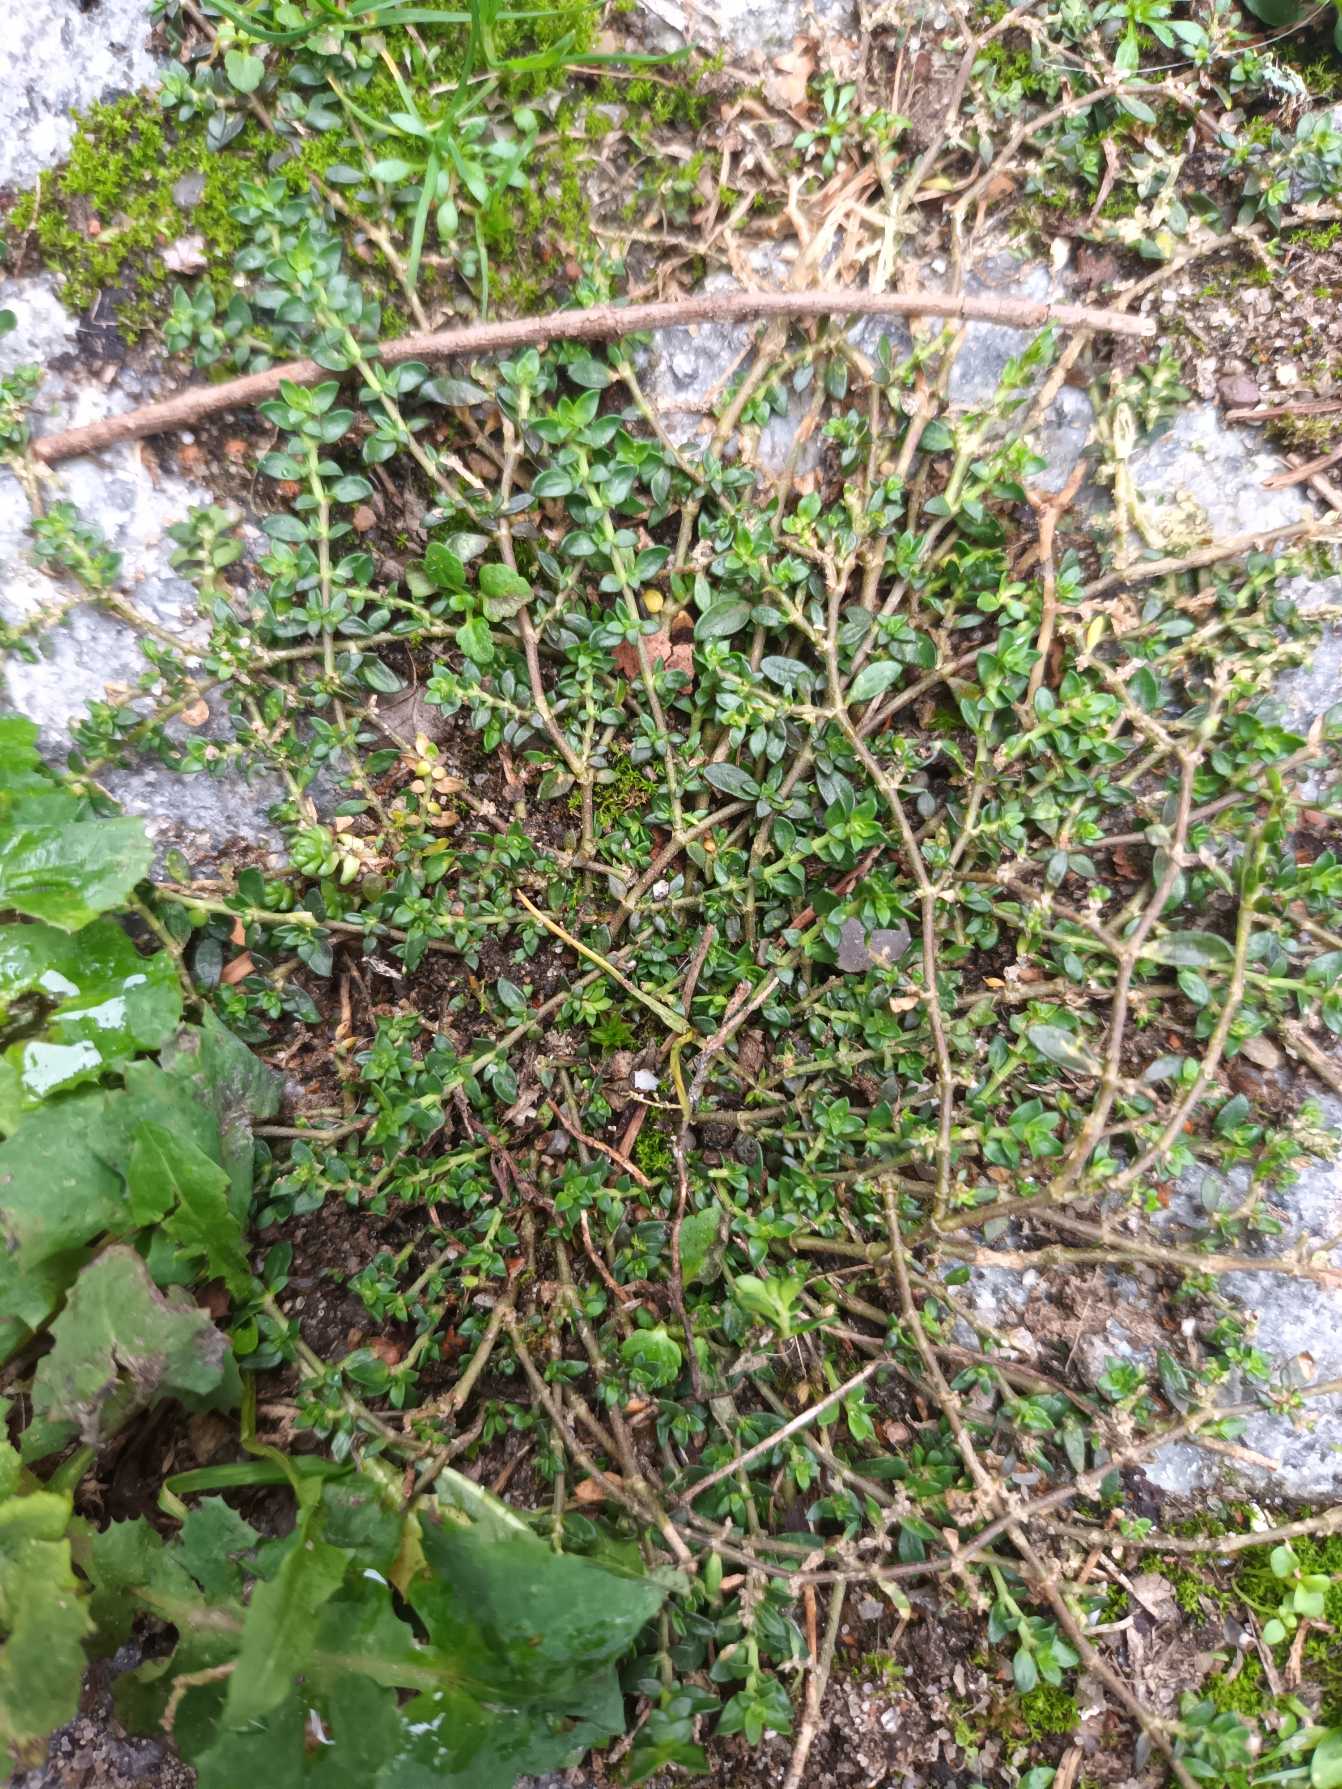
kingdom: Plantae
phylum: Tracheophyta
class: Magnoliopsida
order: Caryophyllales
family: Caryophyllaceae
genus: Herniaria
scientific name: Herniaria glabra
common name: Brudurt
